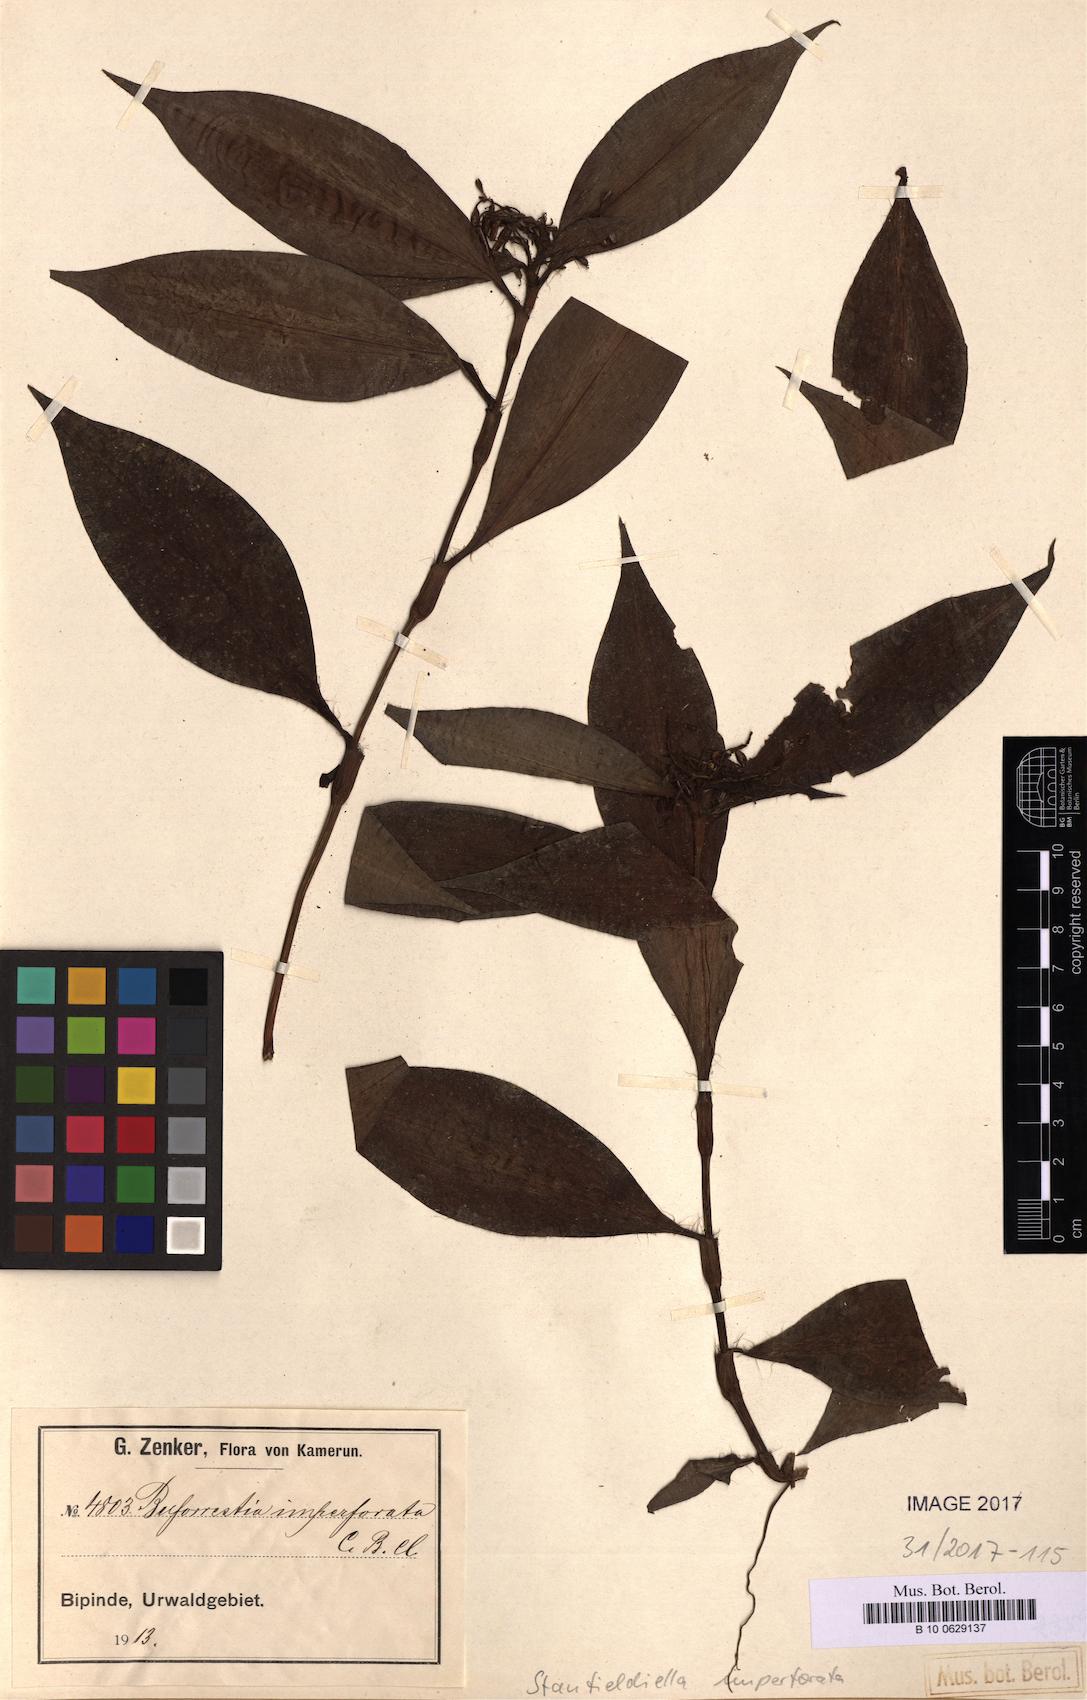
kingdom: Plantae
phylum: Tracheophyta
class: Liliopsida
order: Commelinales
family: Commelinaceae
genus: Stanfieldiella
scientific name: Stanfieldiella imperforata
